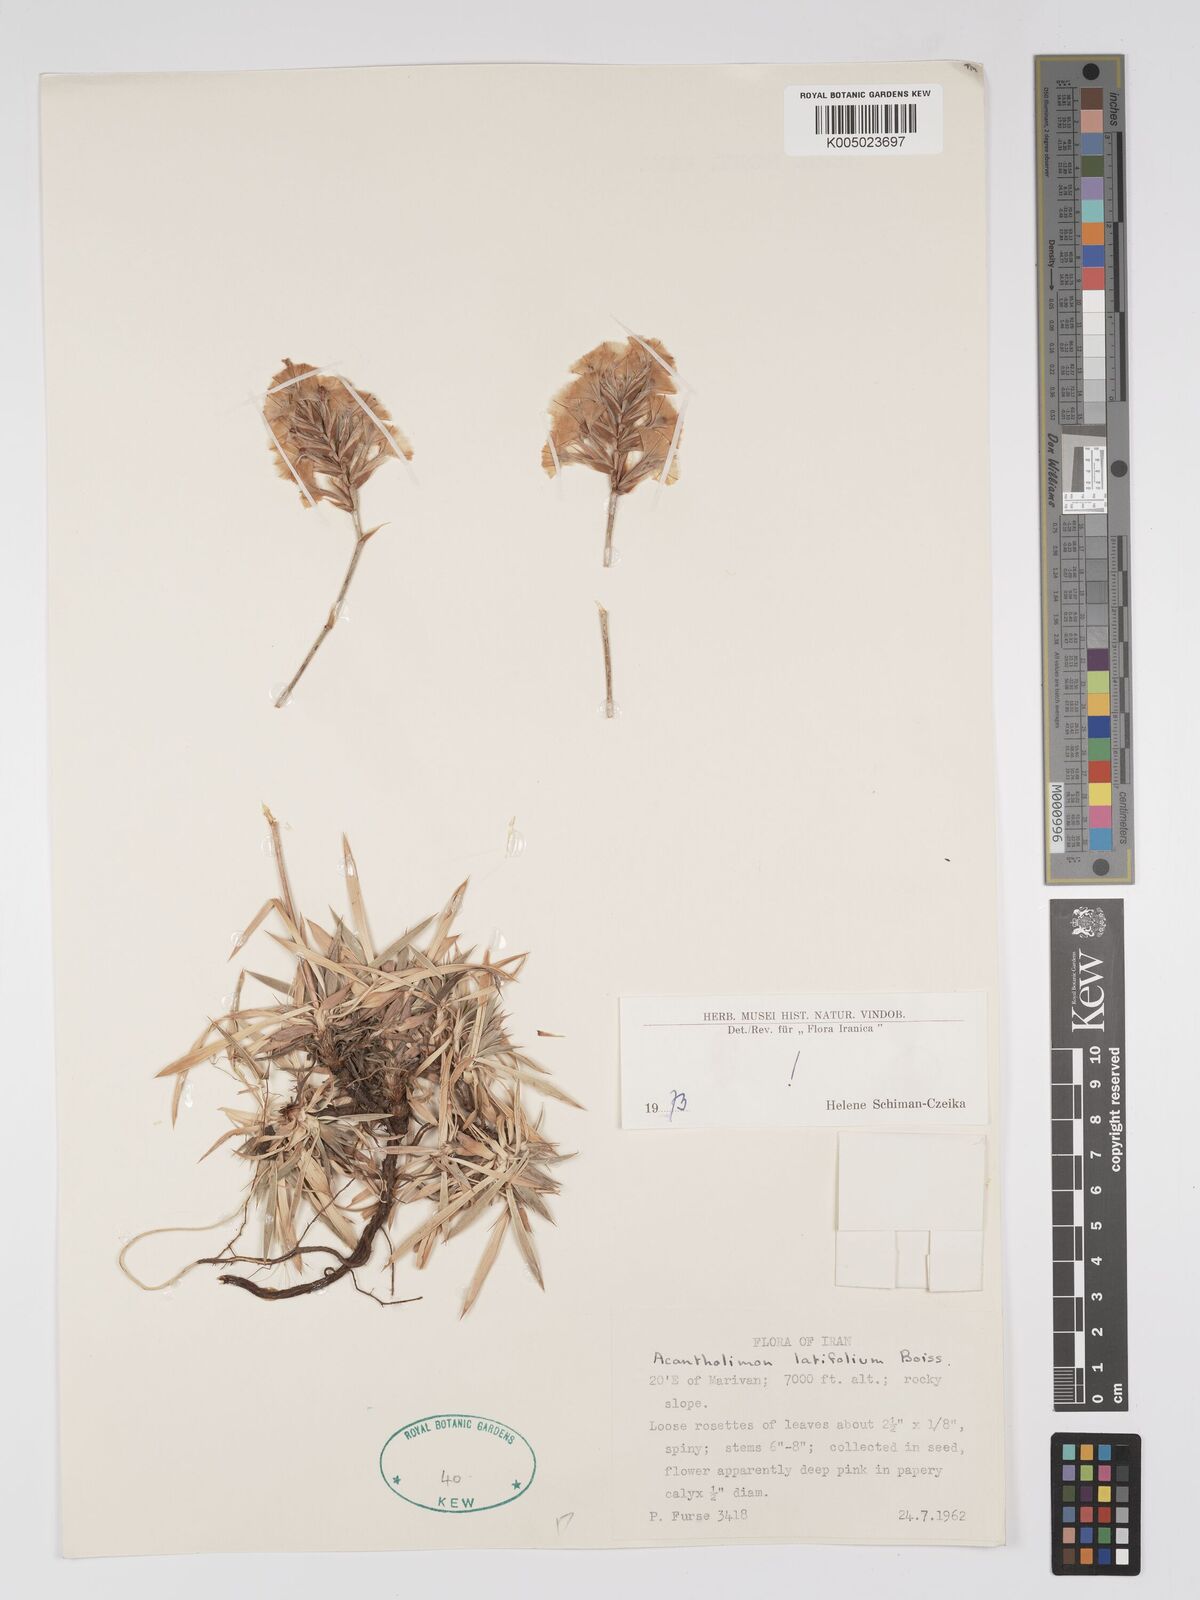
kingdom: Plantae
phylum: Tracheophyta
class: Magnoliopsida
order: Caryophyllales
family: Plumbaginaceae
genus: Acantholimon
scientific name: Acantholimon
